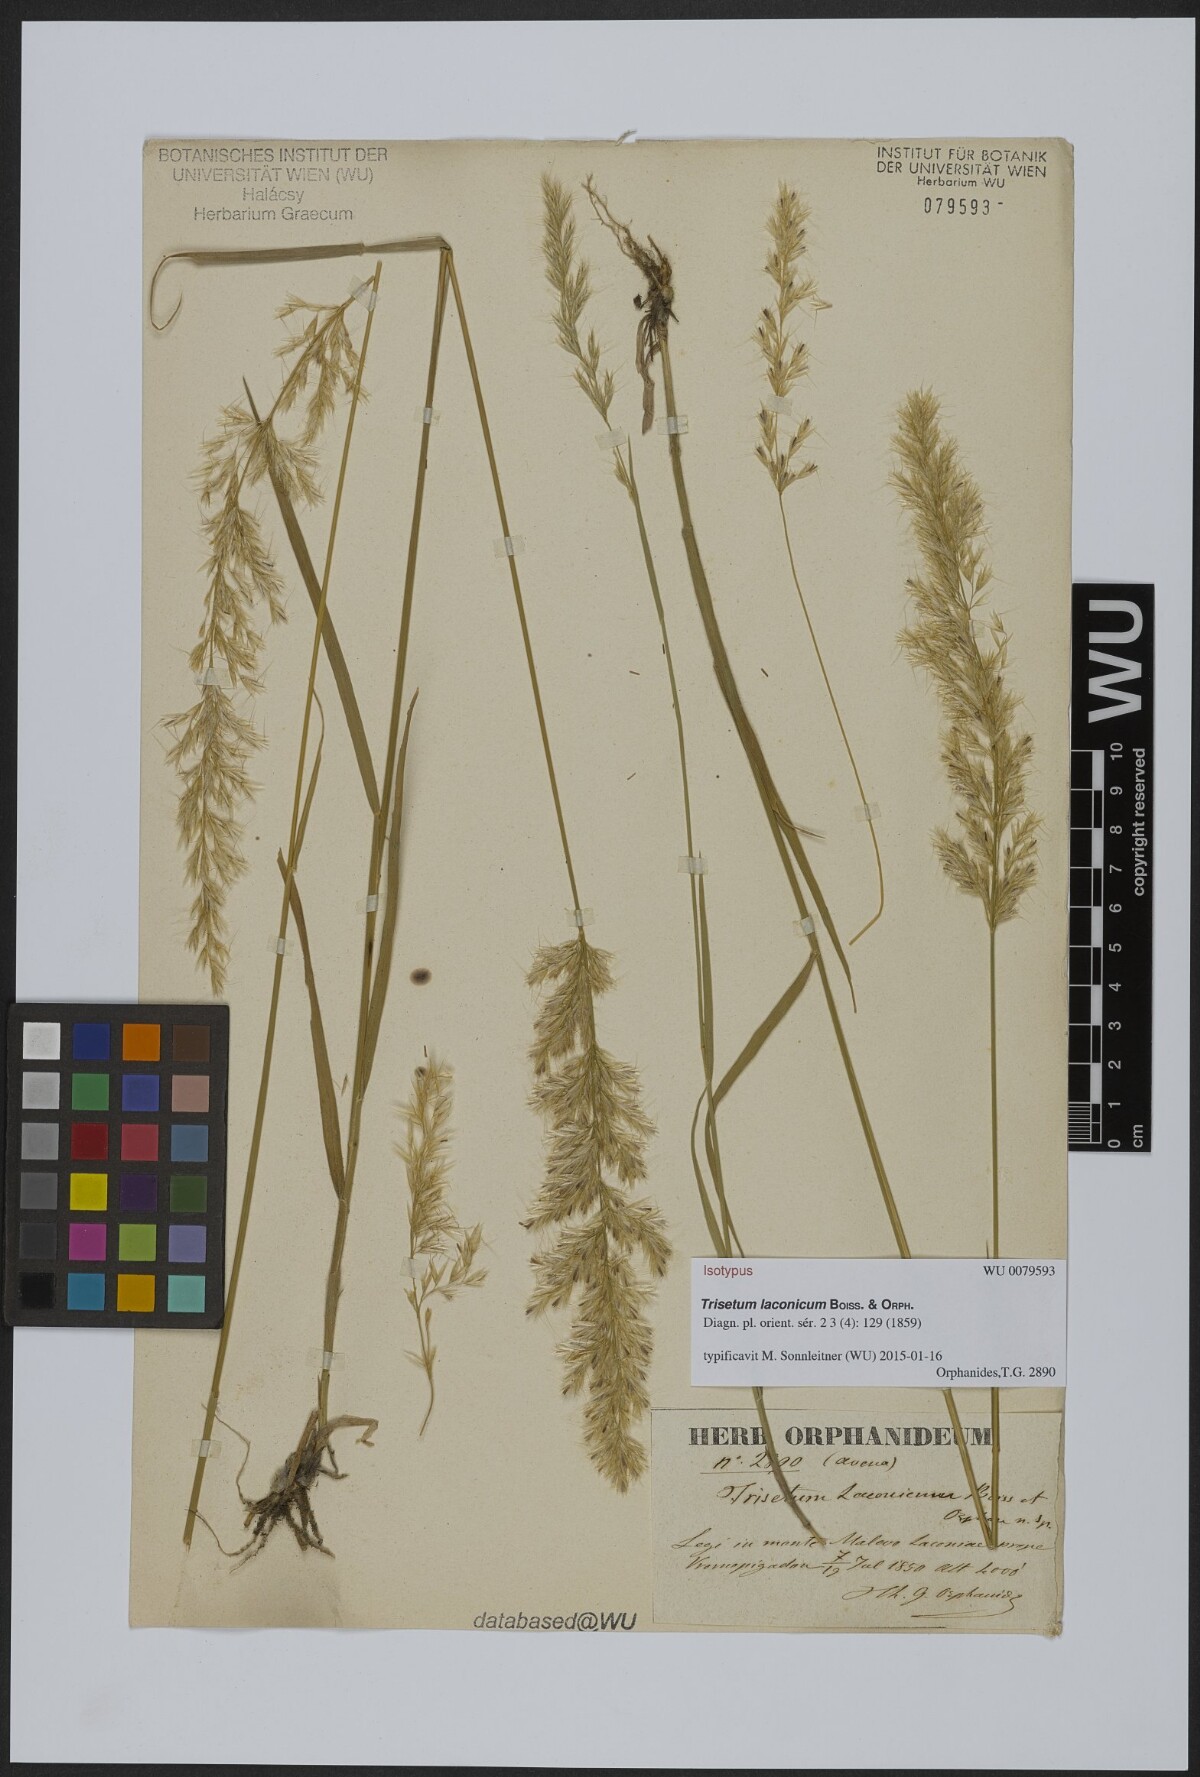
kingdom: Plantae
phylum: Tracheophyta
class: Liliopsida
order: Poales
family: Poaceae
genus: Trisetum
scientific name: Trisetum laconicum
